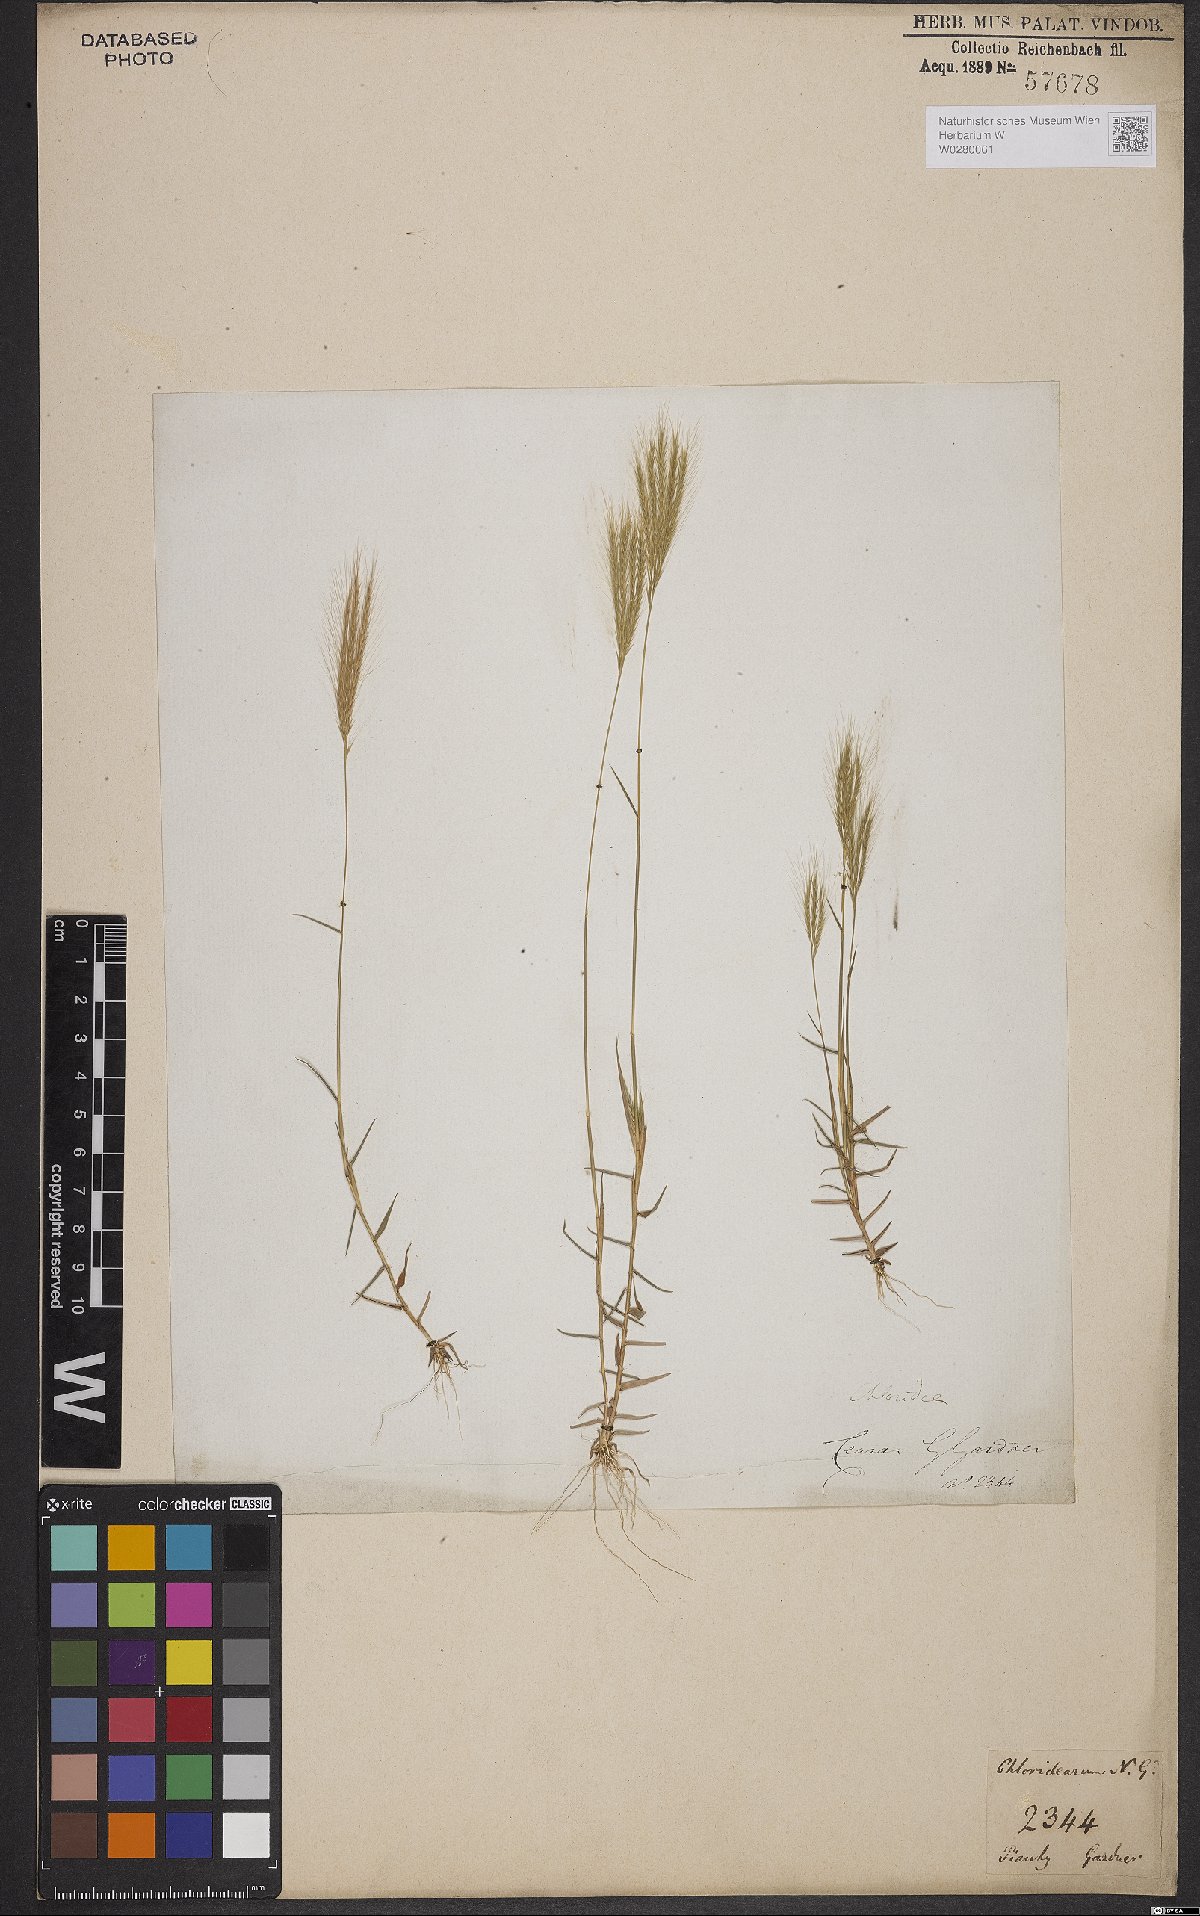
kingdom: Plantae
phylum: Tracheophyta
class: Liliopsida
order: Poales
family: Poaceae
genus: Gymnopogon
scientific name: Gymnopogon foliosus
